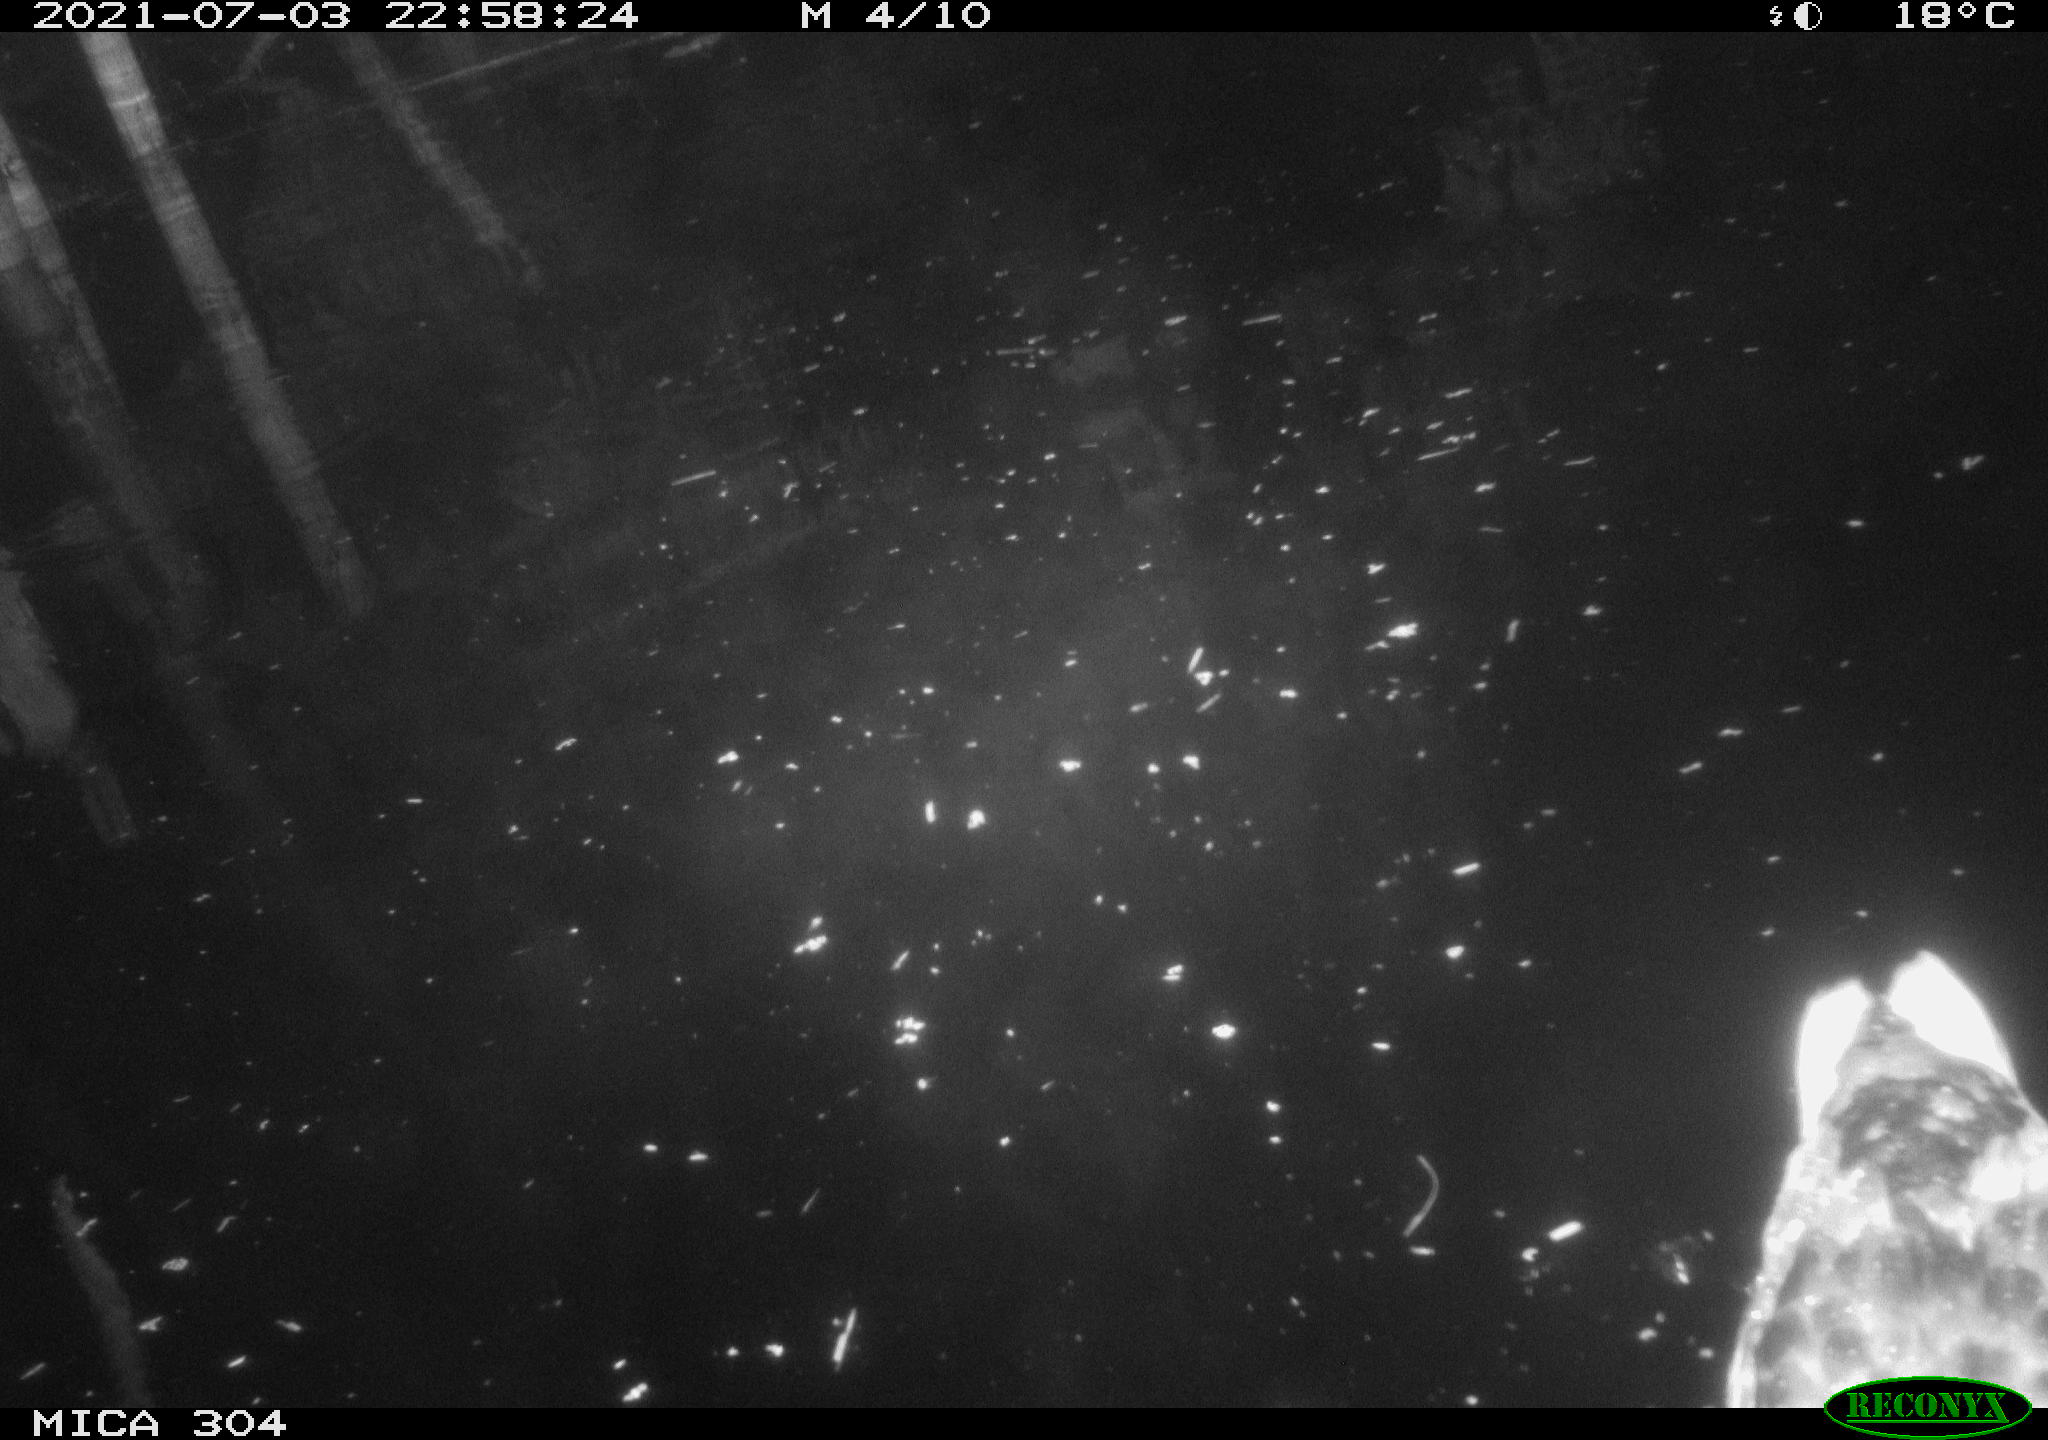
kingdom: Animalia
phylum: Chordata
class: Aves
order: Anseriformes
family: Anatidae
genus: Anas
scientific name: Anas platyrhynchos
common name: Mallard
